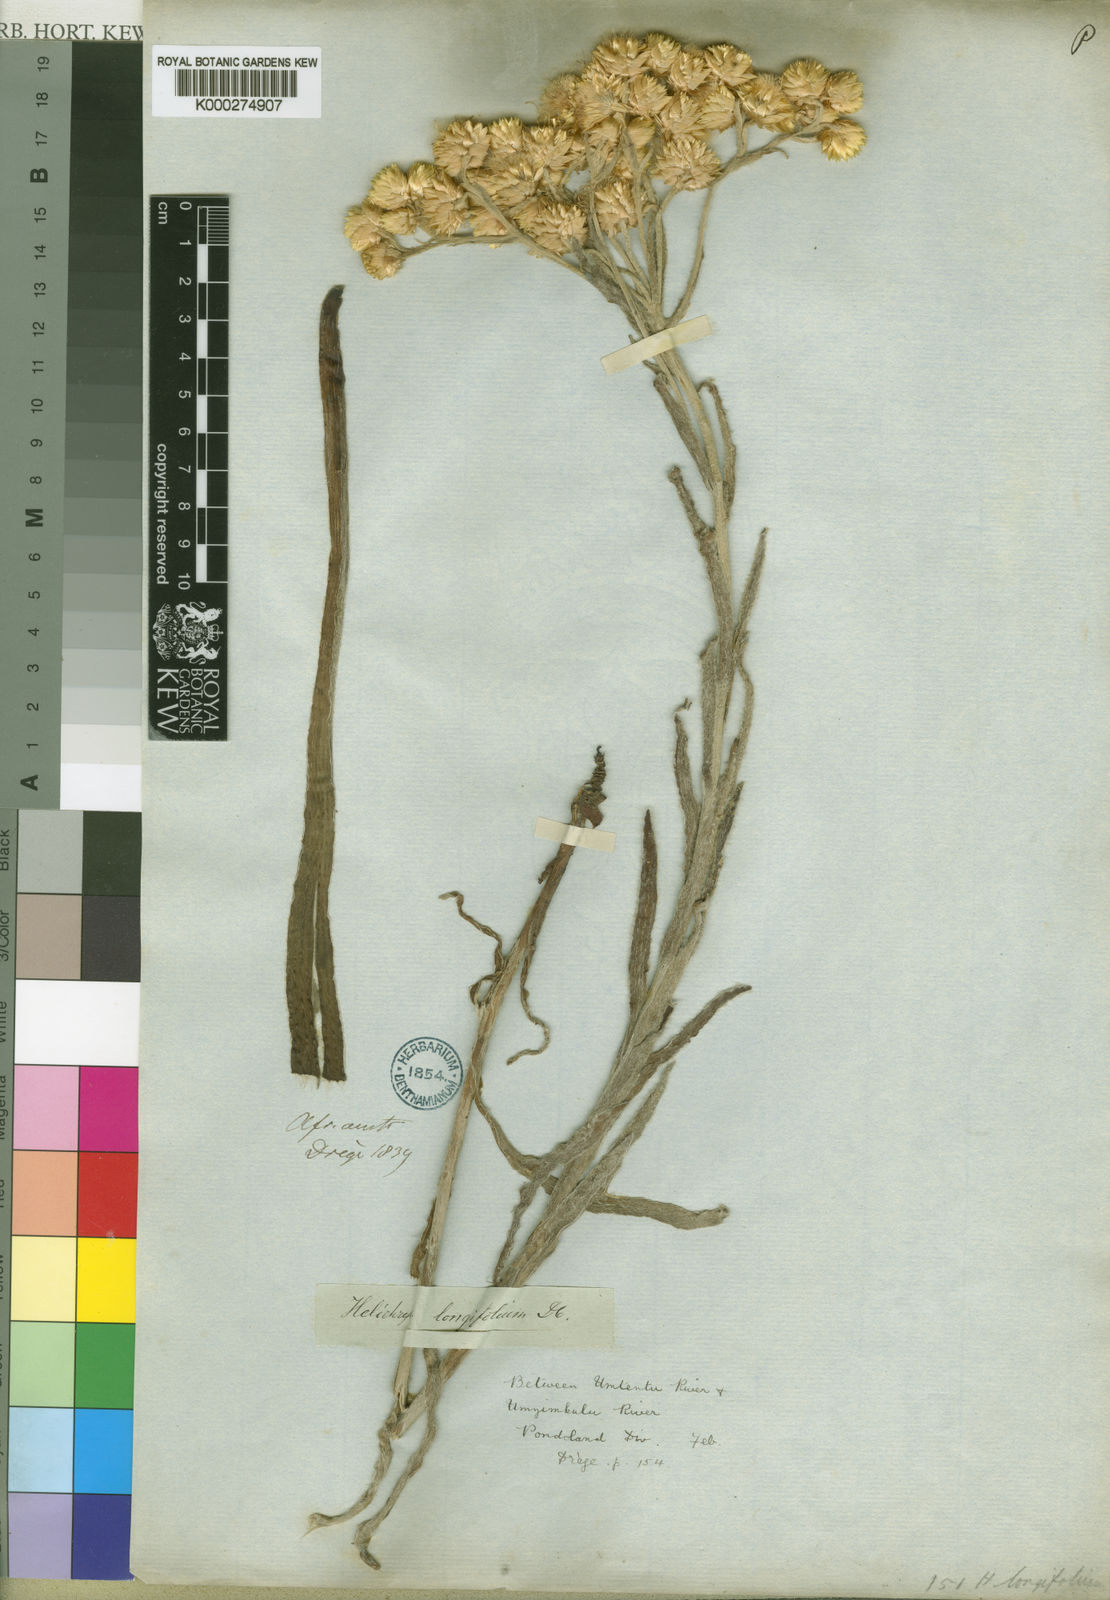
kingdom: Plantae
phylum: Tracheophyta
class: Magnoliopsida
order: Asterales
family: Asteraceae
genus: Helichrysum
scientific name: Helichrysum longifolium
